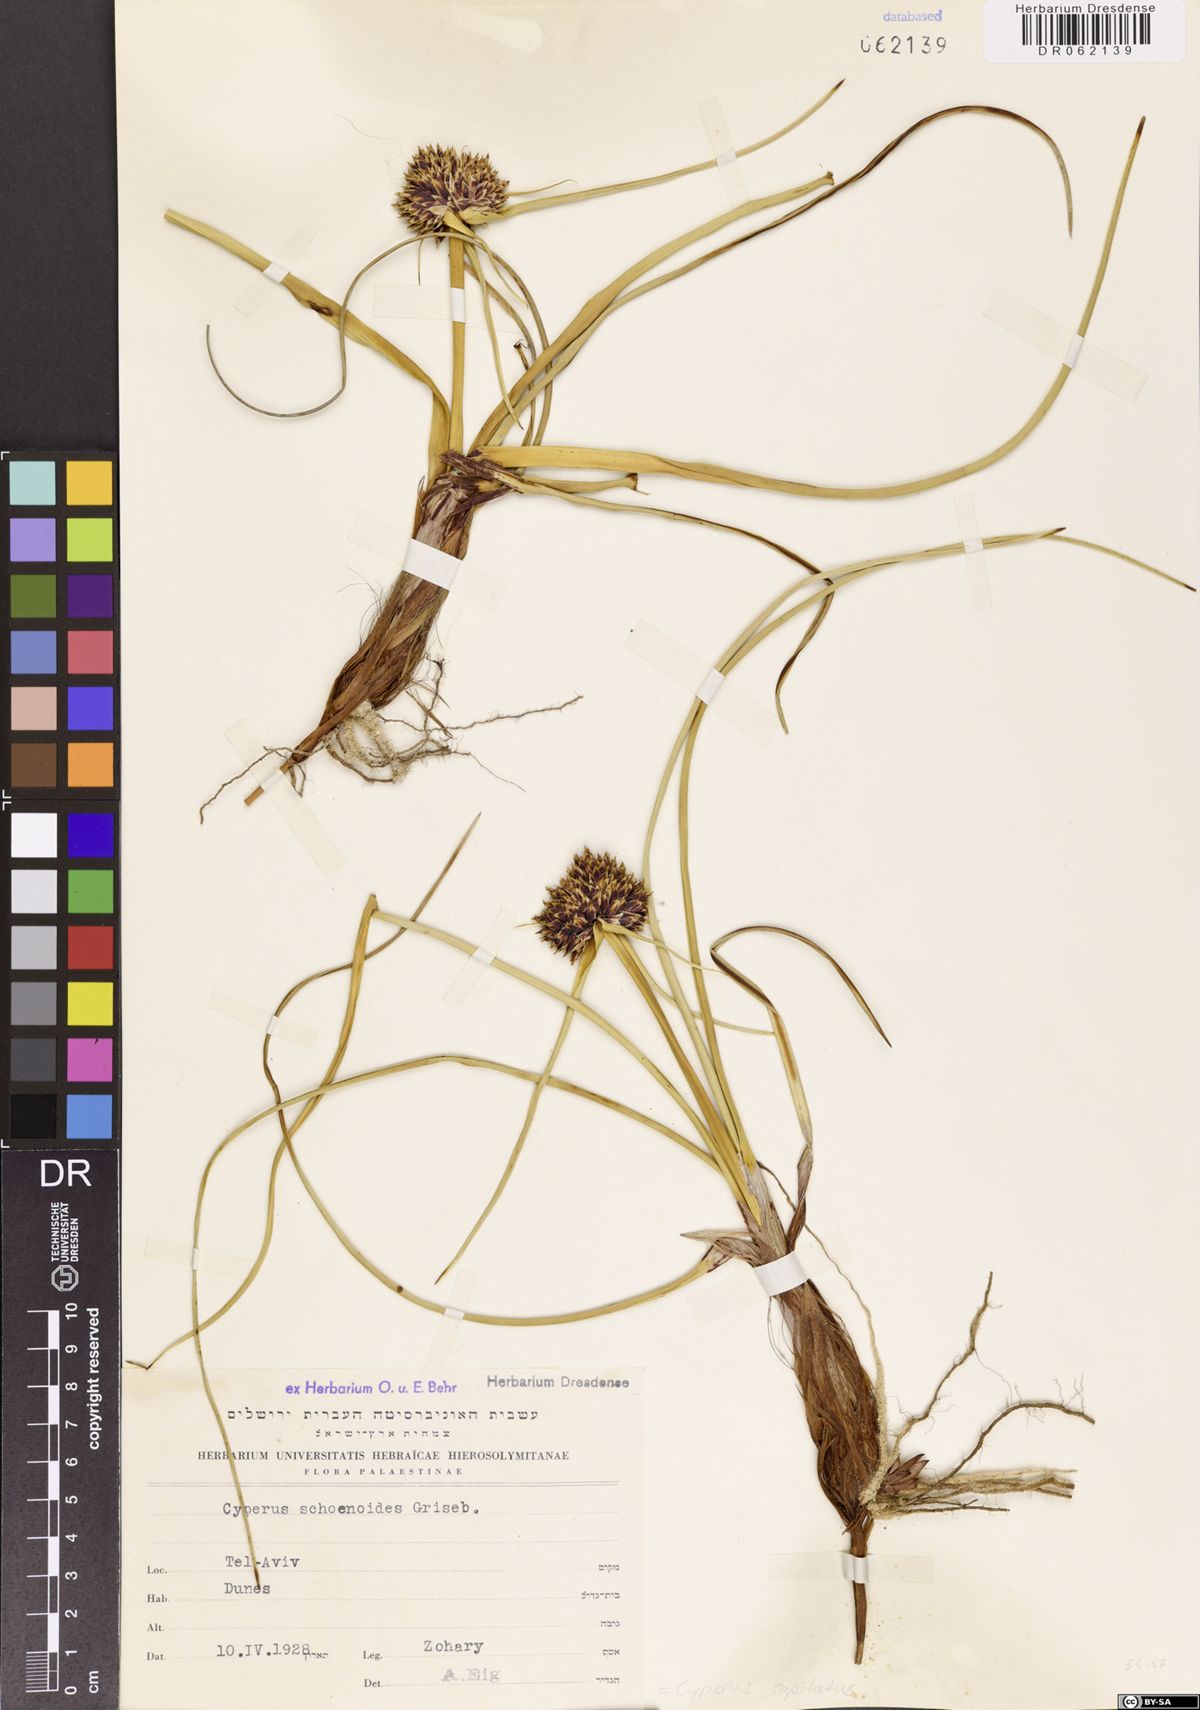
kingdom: Plantae
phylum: Tracheophyta
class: Liliopsida
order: Poales
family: Cyperaceae
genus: Cyperus
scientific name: Cyperus capitatus
